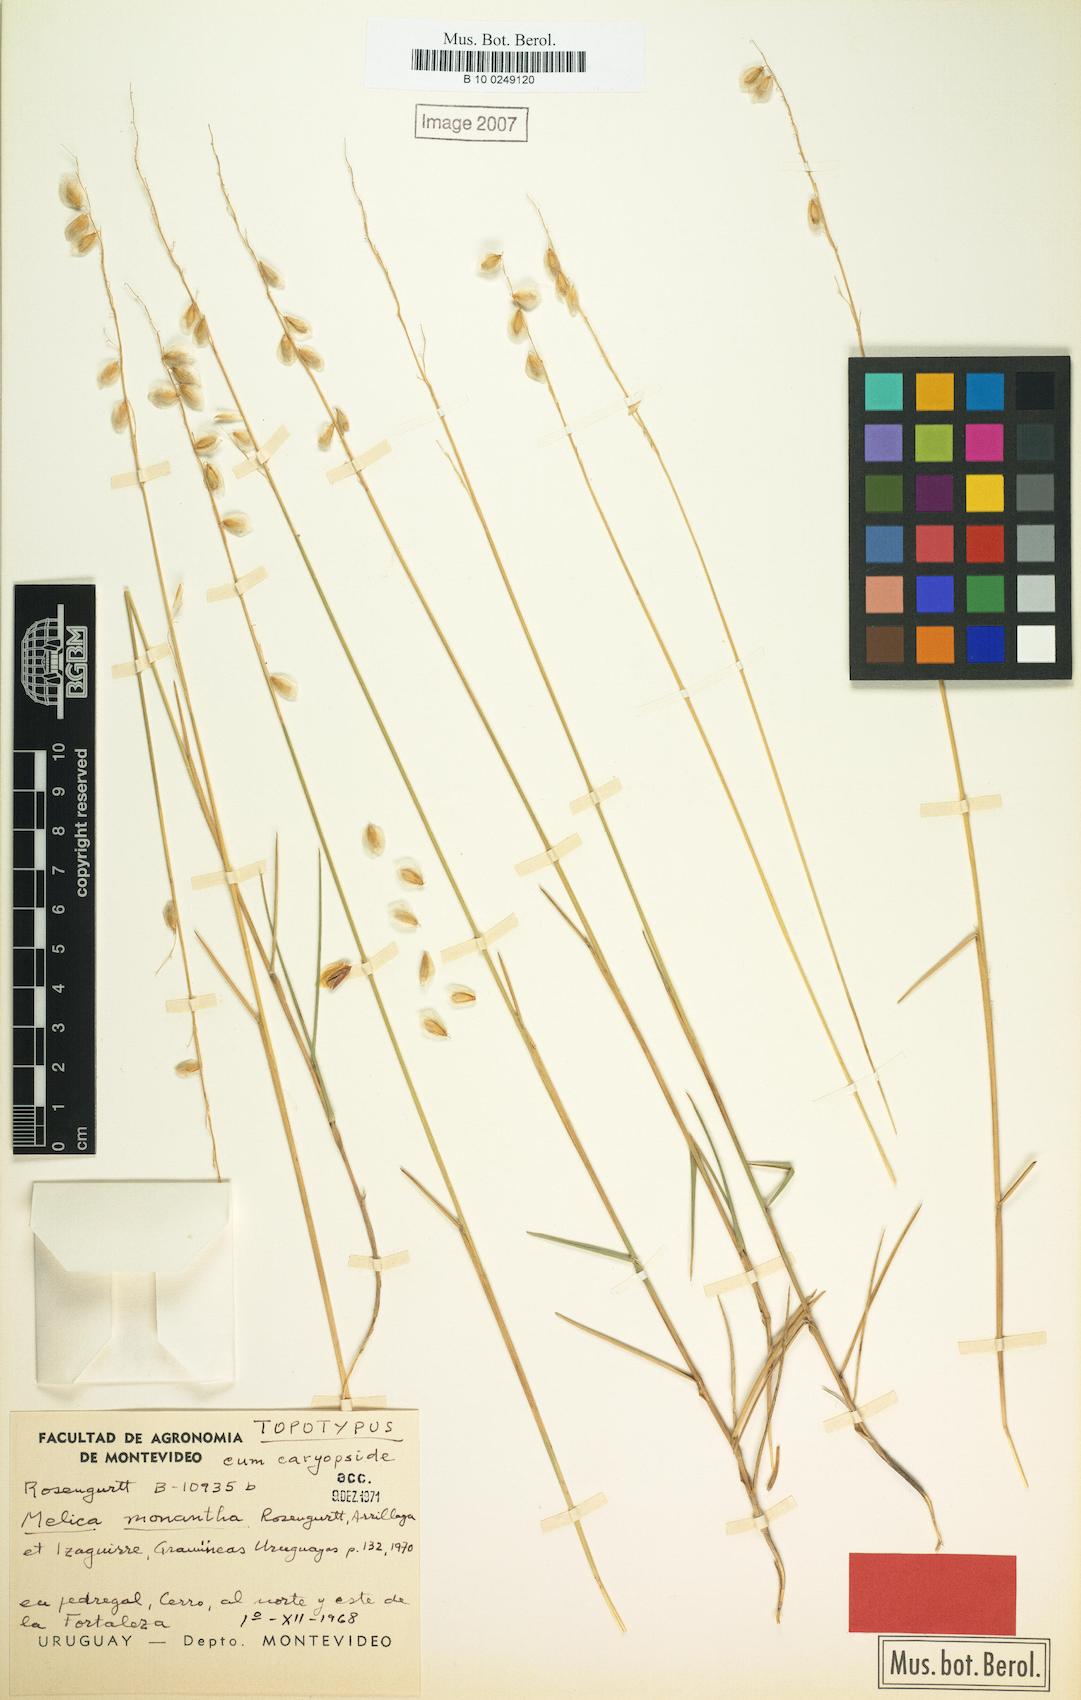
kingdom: Plantae
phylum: Tracheophyta
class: Liliopsida
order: Poales
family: Poaceae
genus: Melica
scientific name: Melica eremophila
